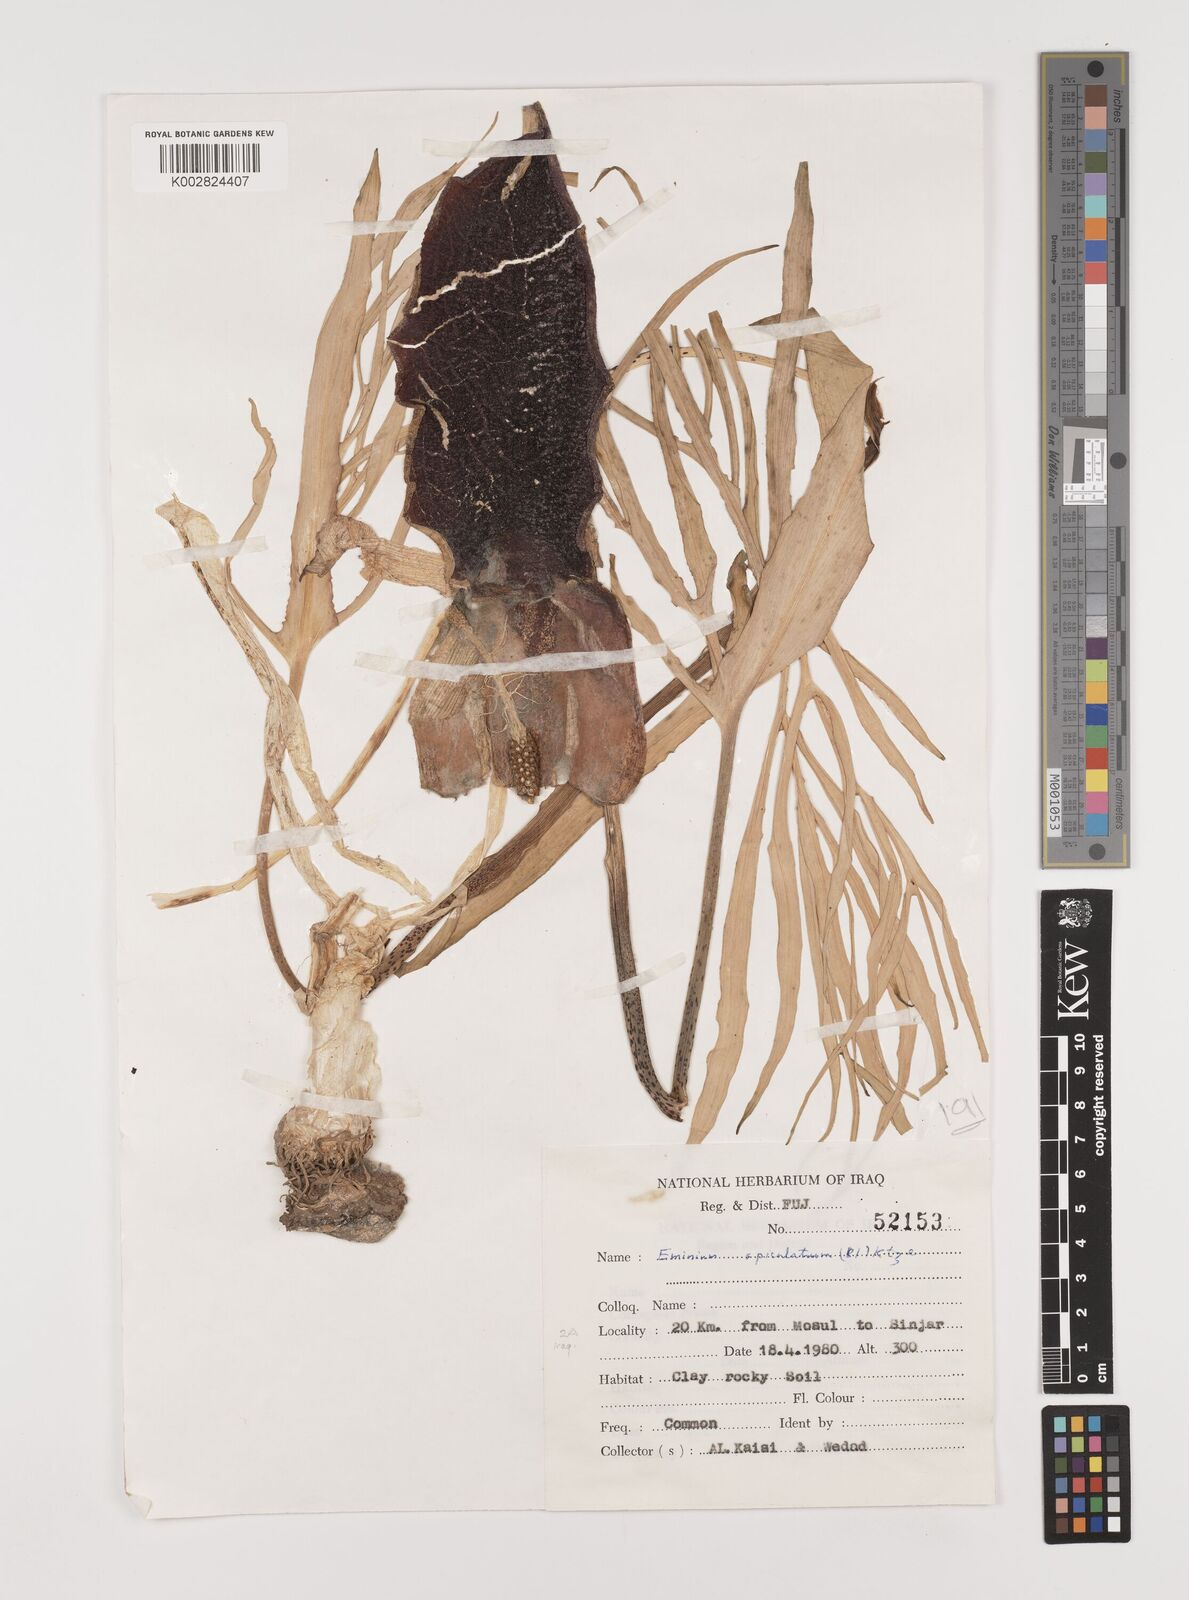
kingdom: Plantae
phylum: Tracheophyta
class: Liliopsida
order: Alismatales
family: Araceae
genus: Eminium
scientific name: Eminium spiculatum
